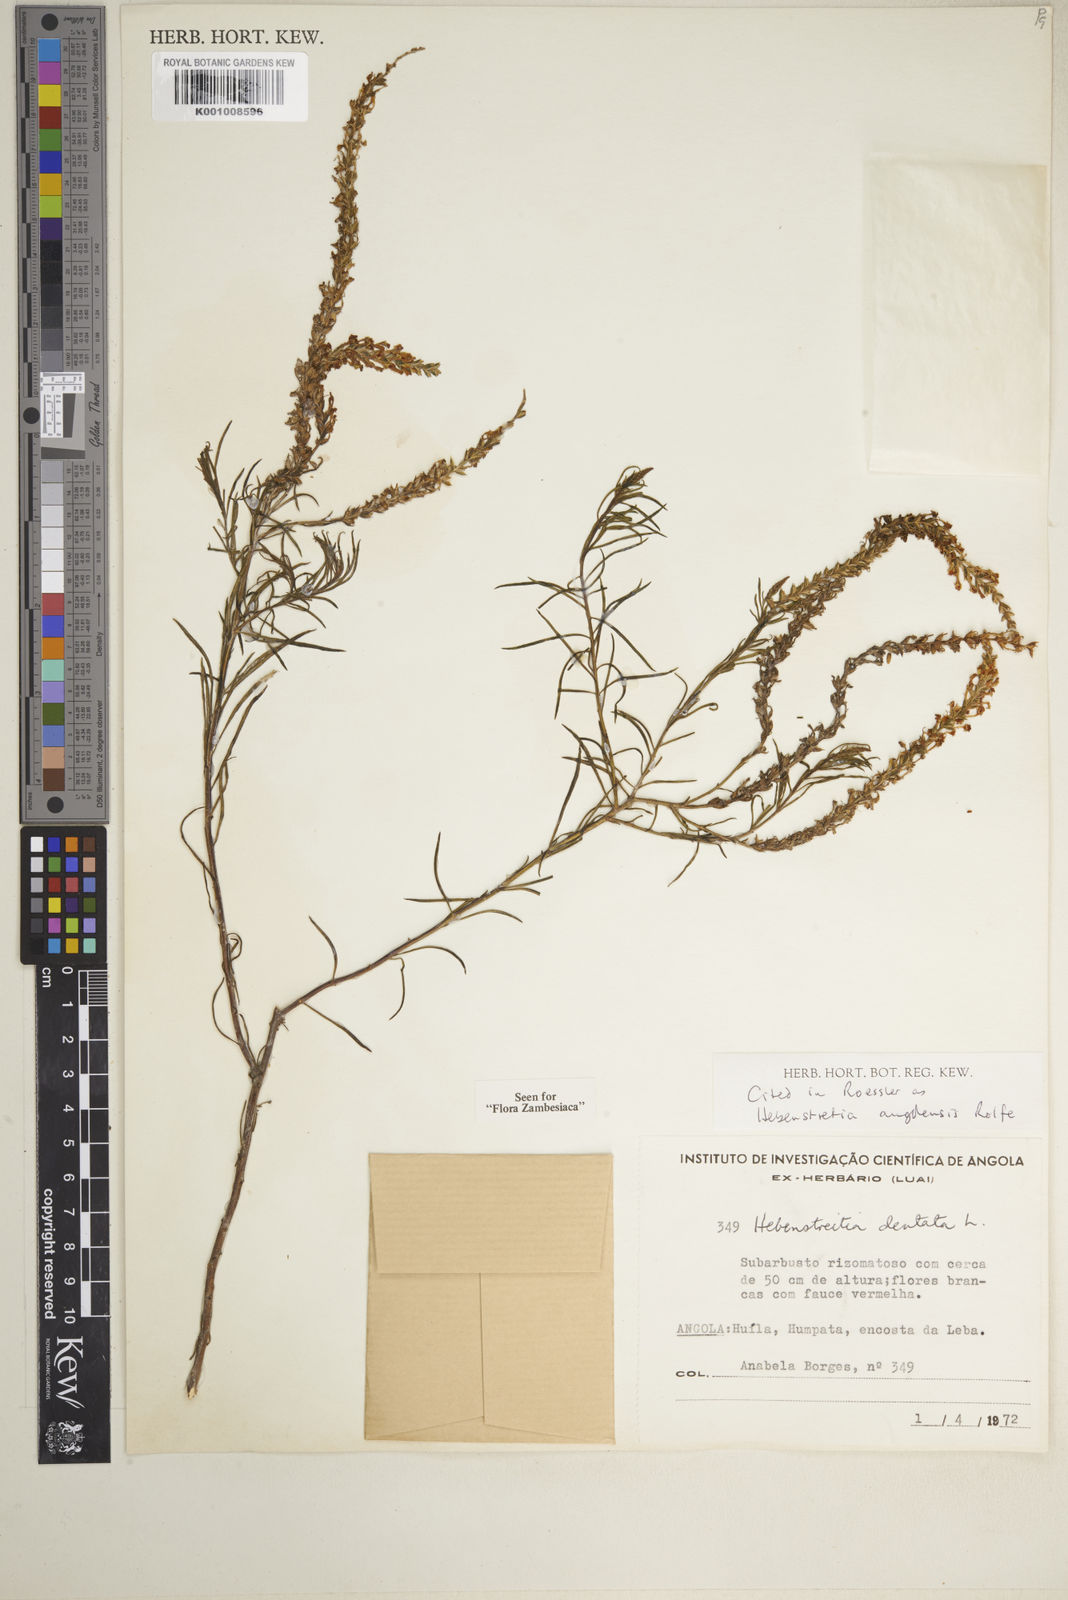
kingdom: Plantae
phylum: Tracheophyta
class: Magnoliopsida
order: Lamiales
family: Scrophulariaceae
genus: Hebenstretia
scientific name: Hebenstretia angolensis
